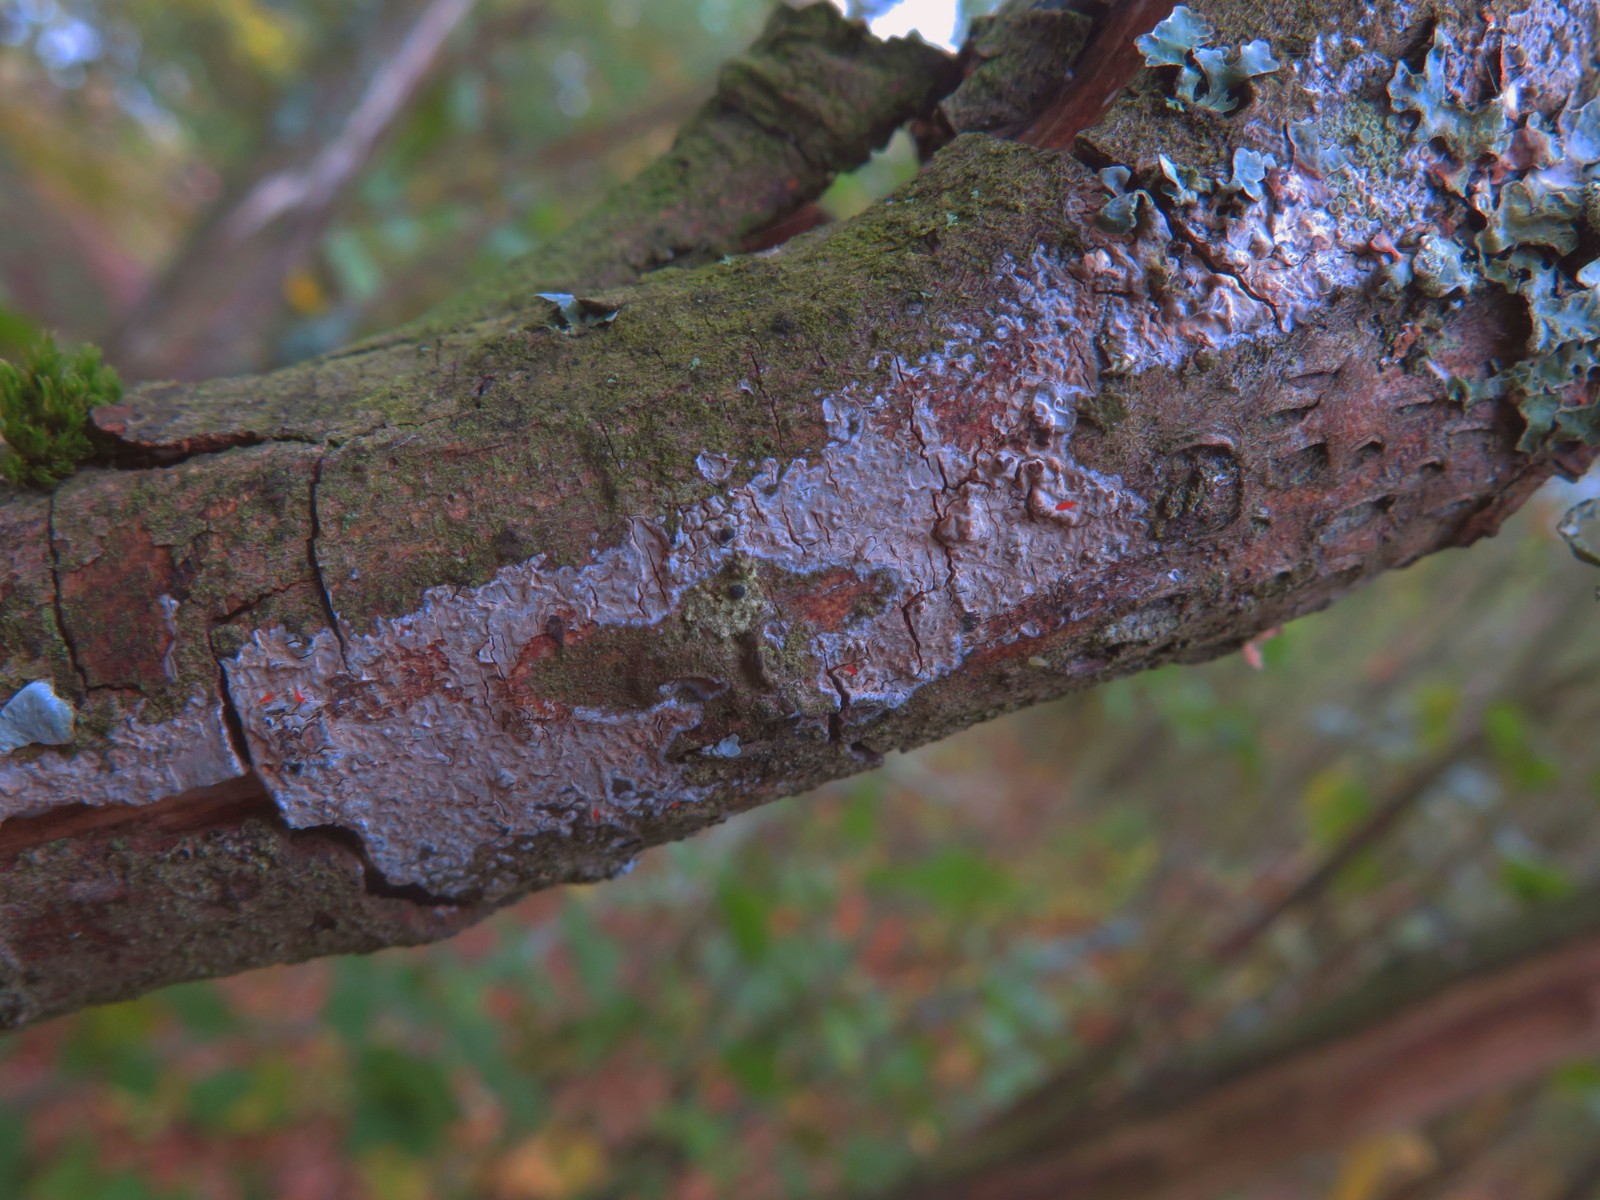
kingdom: Fungi
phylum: Basidiomycota
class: Agaricomycetes
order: Corticiales
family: Corticiaceae
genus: Corticium
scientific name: Corticium roseum
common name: rosa barkskind
